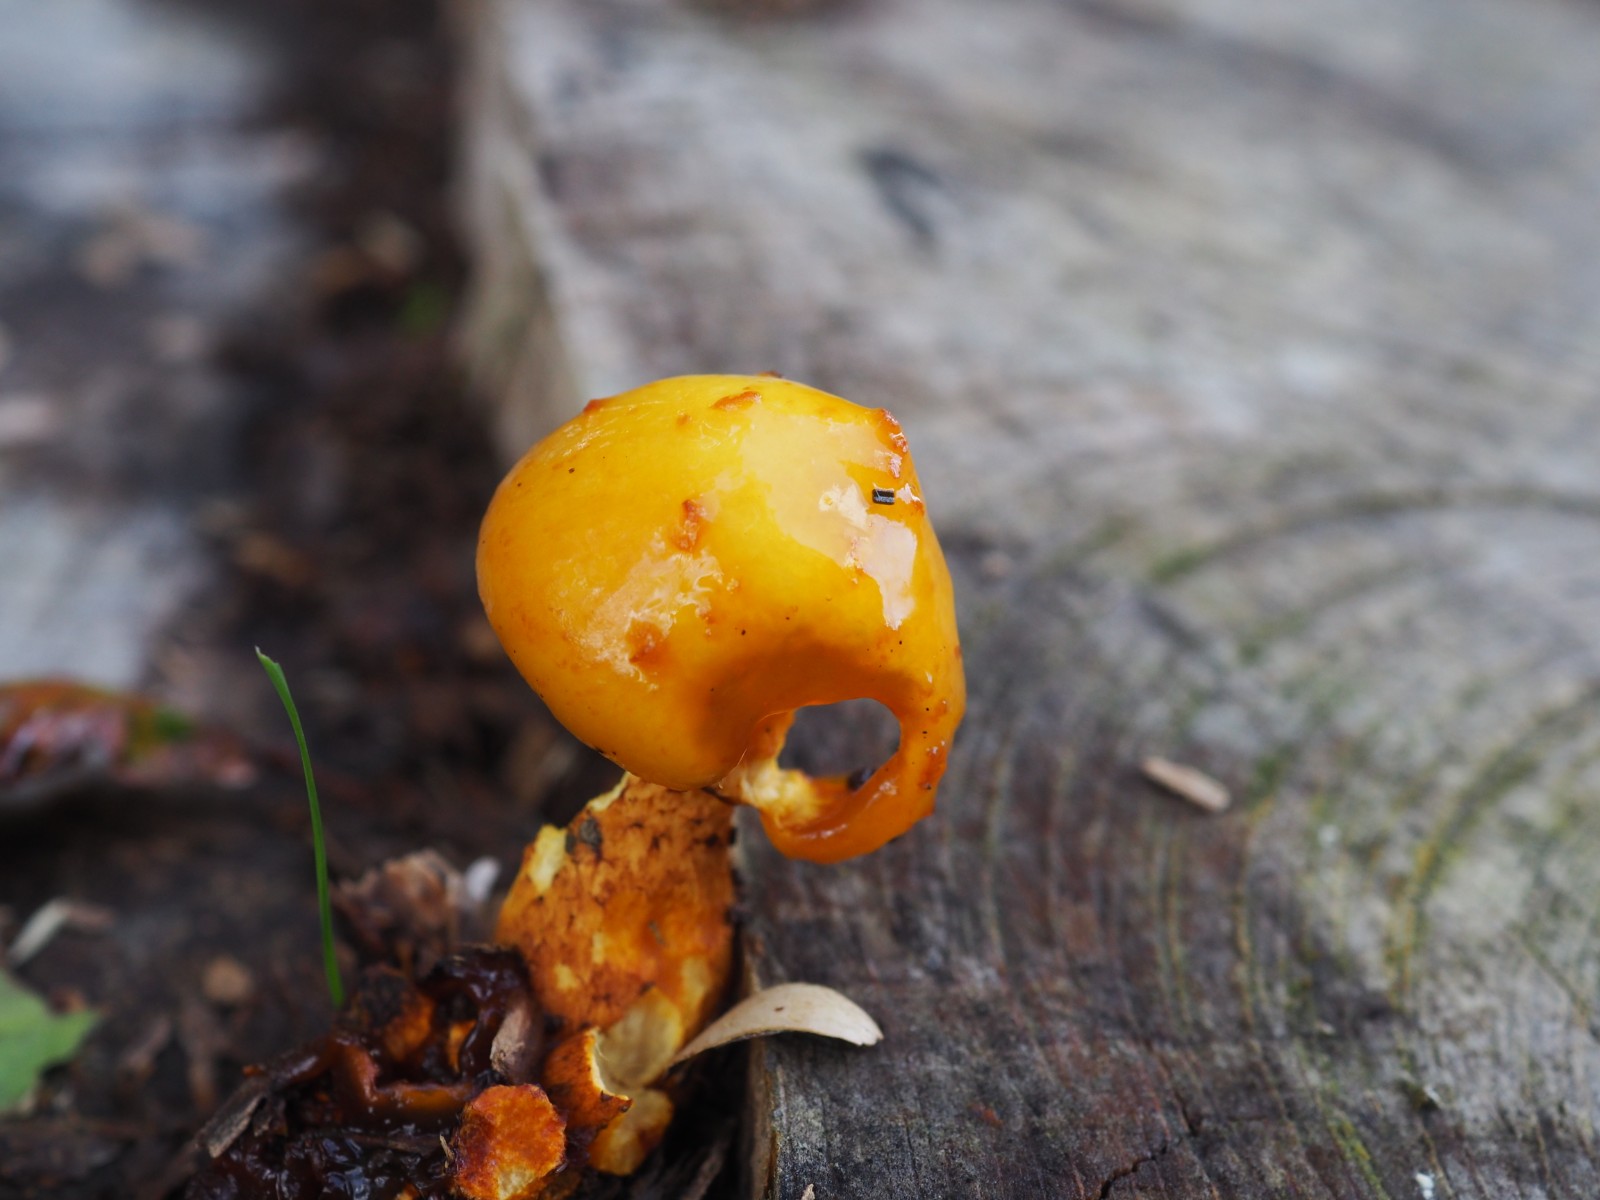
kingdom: Fungi
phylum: Basidiomycota
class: Agaricomycetes
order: Agaricales
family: Strophariaceae
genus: Pholiota
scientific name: Pholiota adiposa
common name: højtsiddende skælhat
